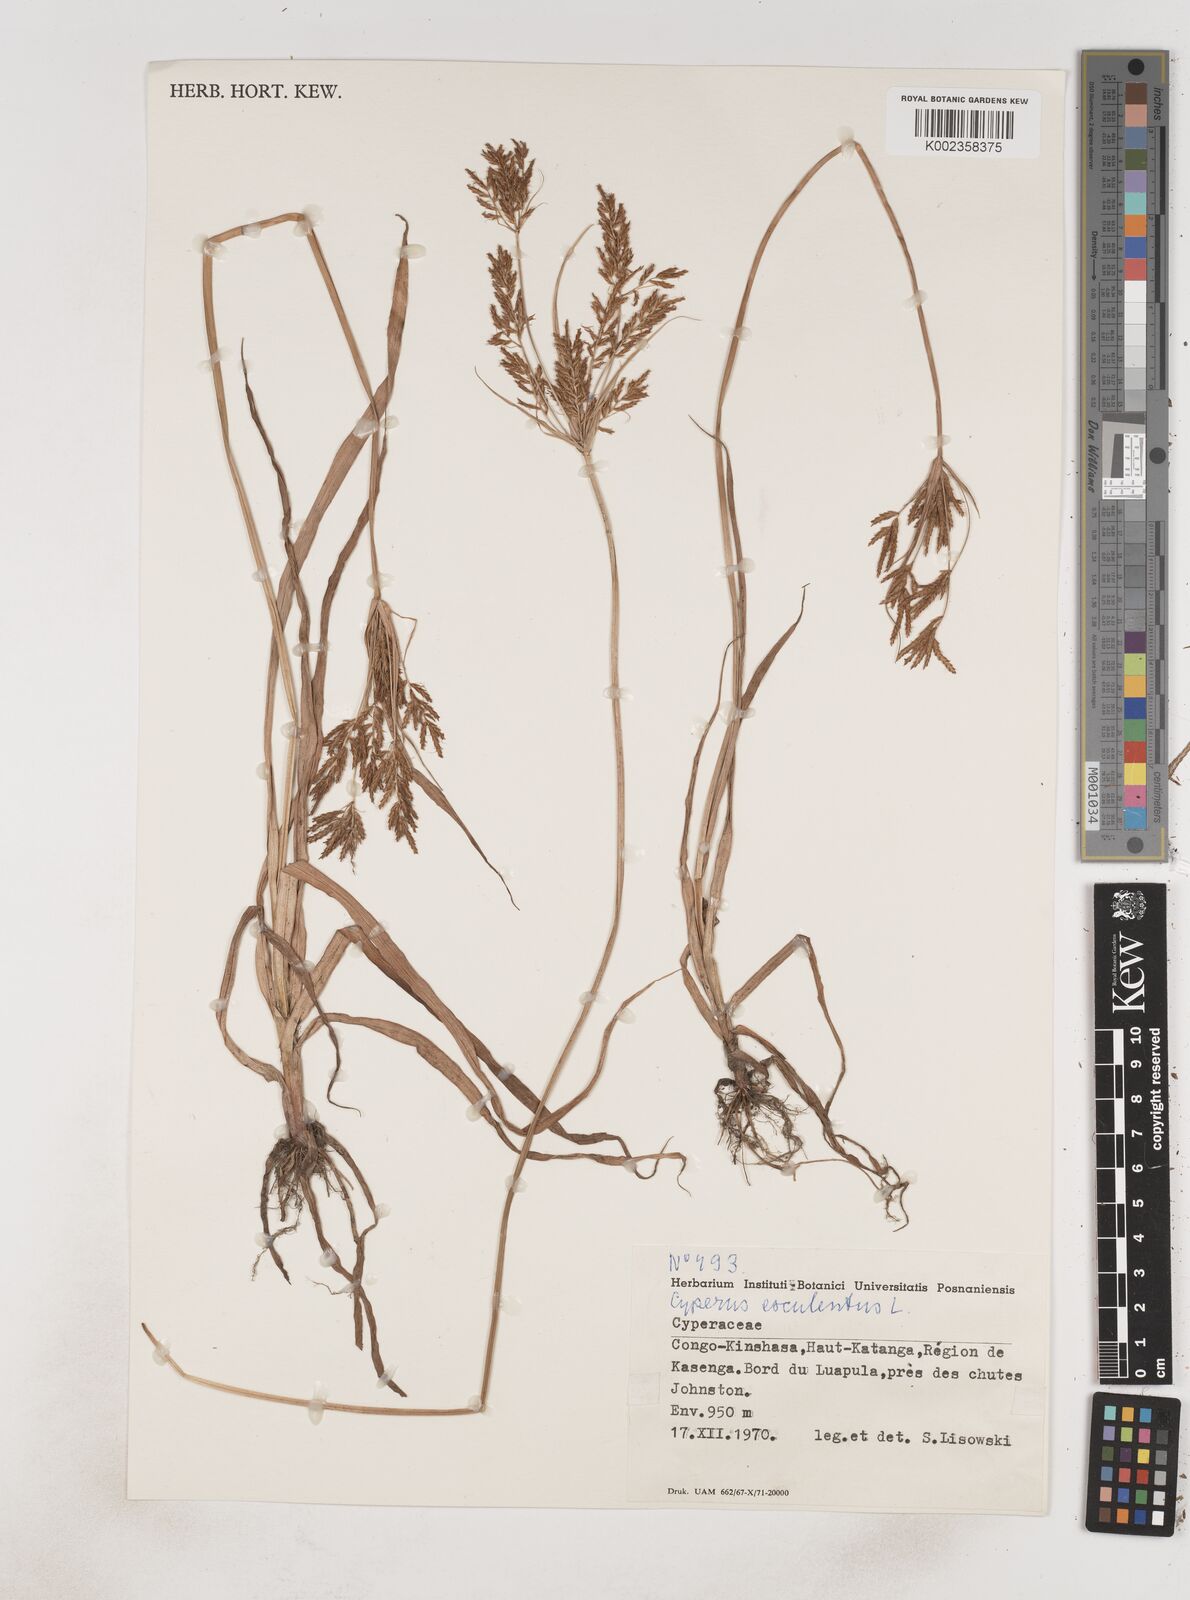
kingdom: Plantae
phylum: Tracheophyta
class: Liliopsida
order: Poales
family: Cyperaceae
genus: Cyperus
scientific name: Cyperus esculentus
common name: Yellow nutsedge
